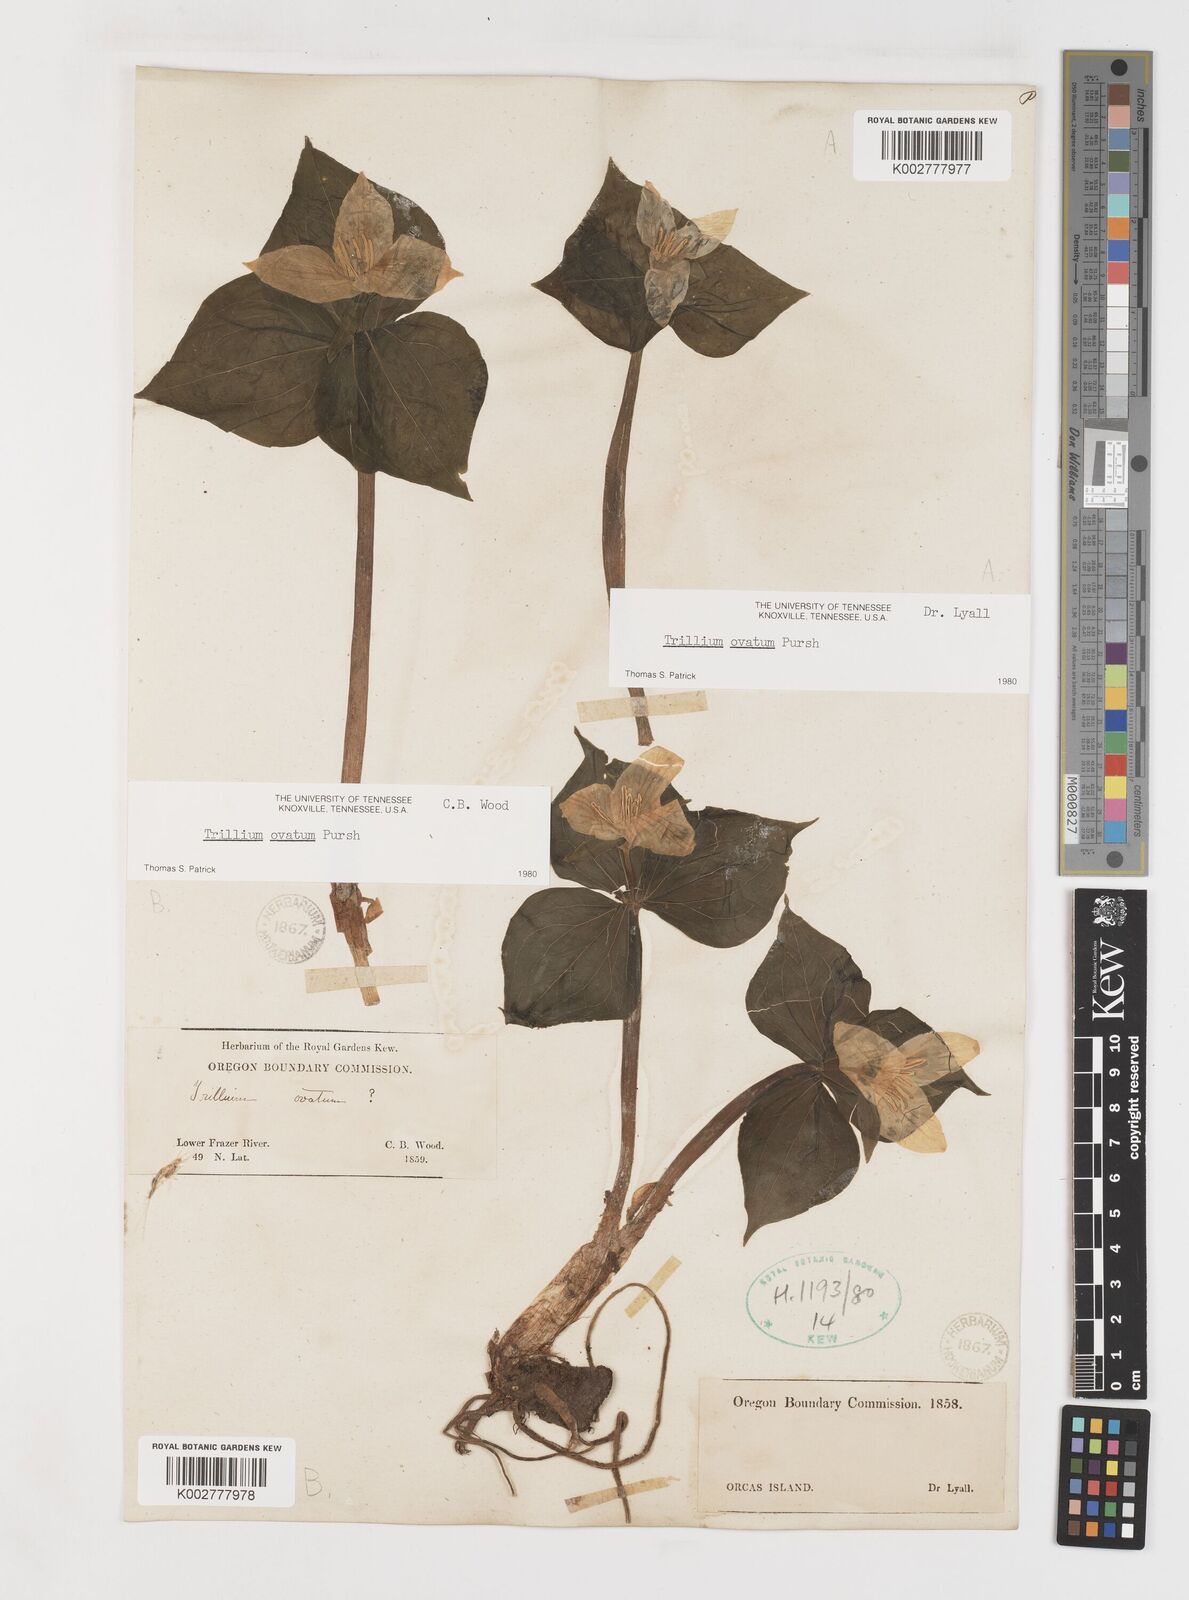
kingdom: Plantae
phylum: Tracheophyta
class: Liliopsida
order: Liliales
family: Melanthiaceae
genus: Trillium
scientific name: Trillium ovatum
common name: Pacific trillium
